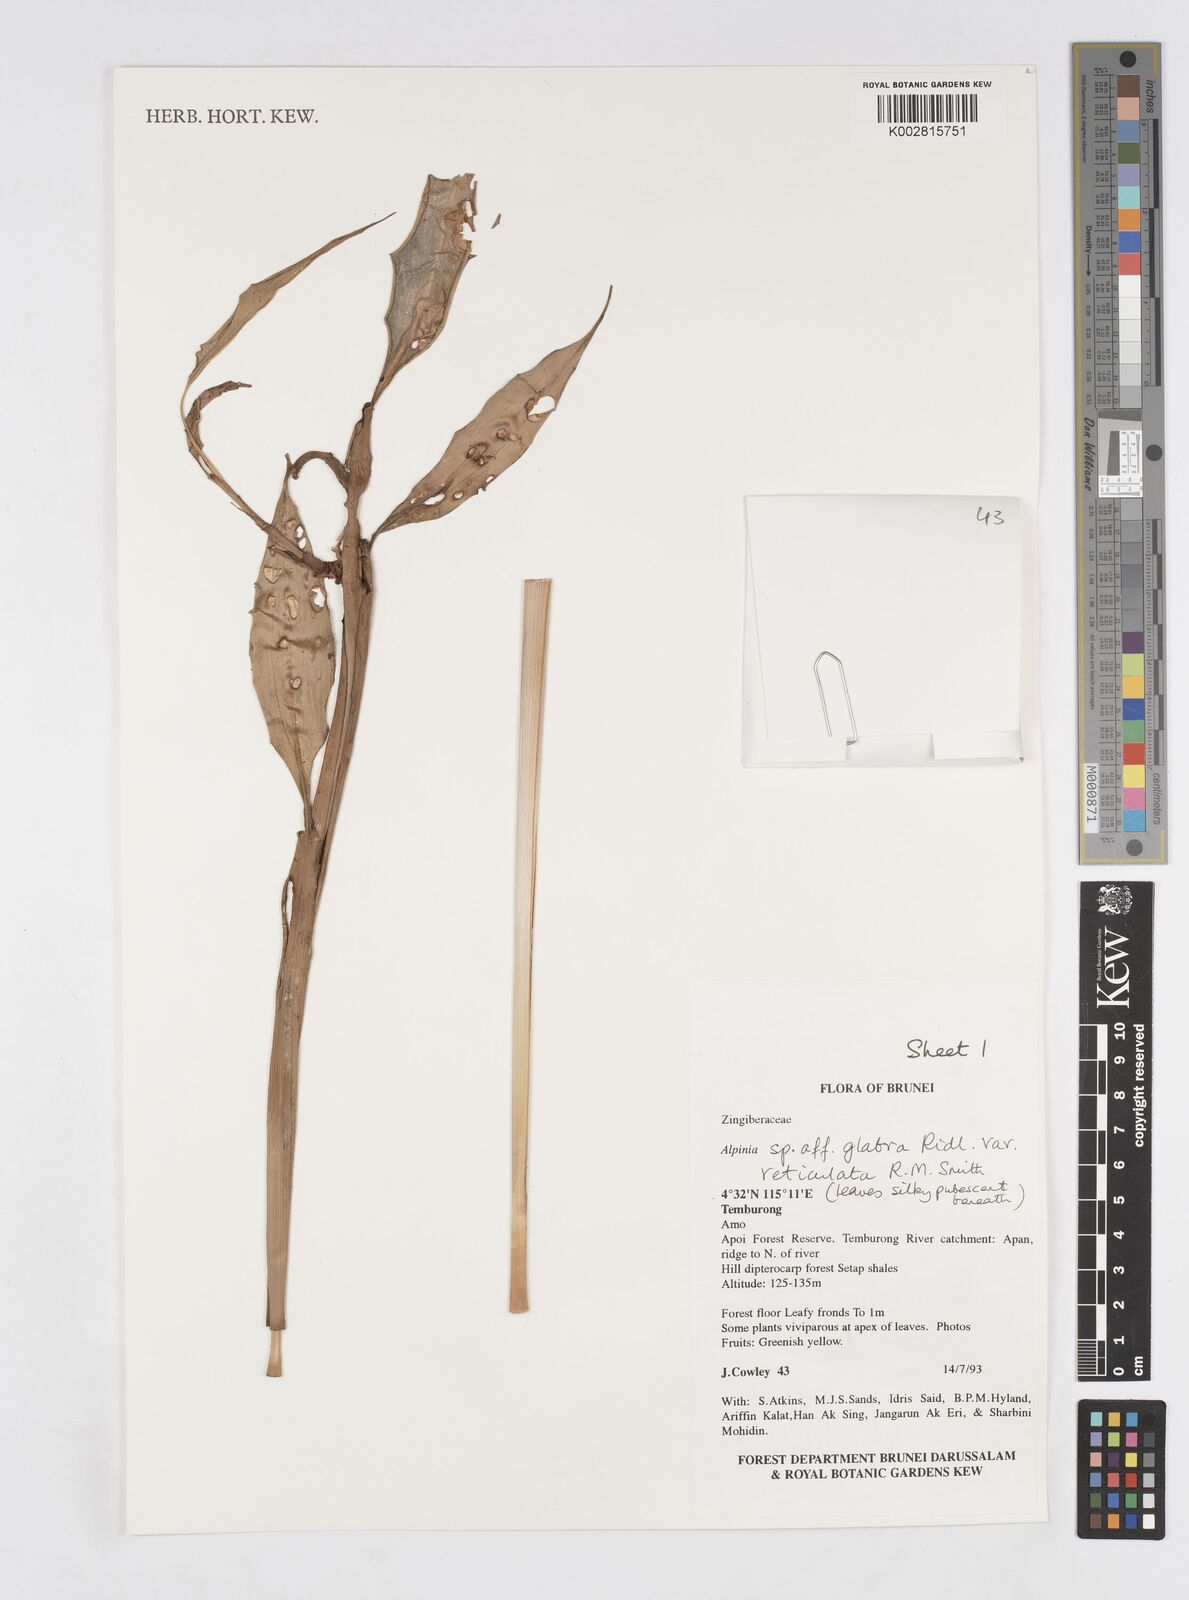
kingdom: Plantae
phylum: Tracheophyta
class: Liliopsida
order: Zingiberales
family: Zingiberaceae
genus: Alpinia
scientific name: Alpinia glabra
